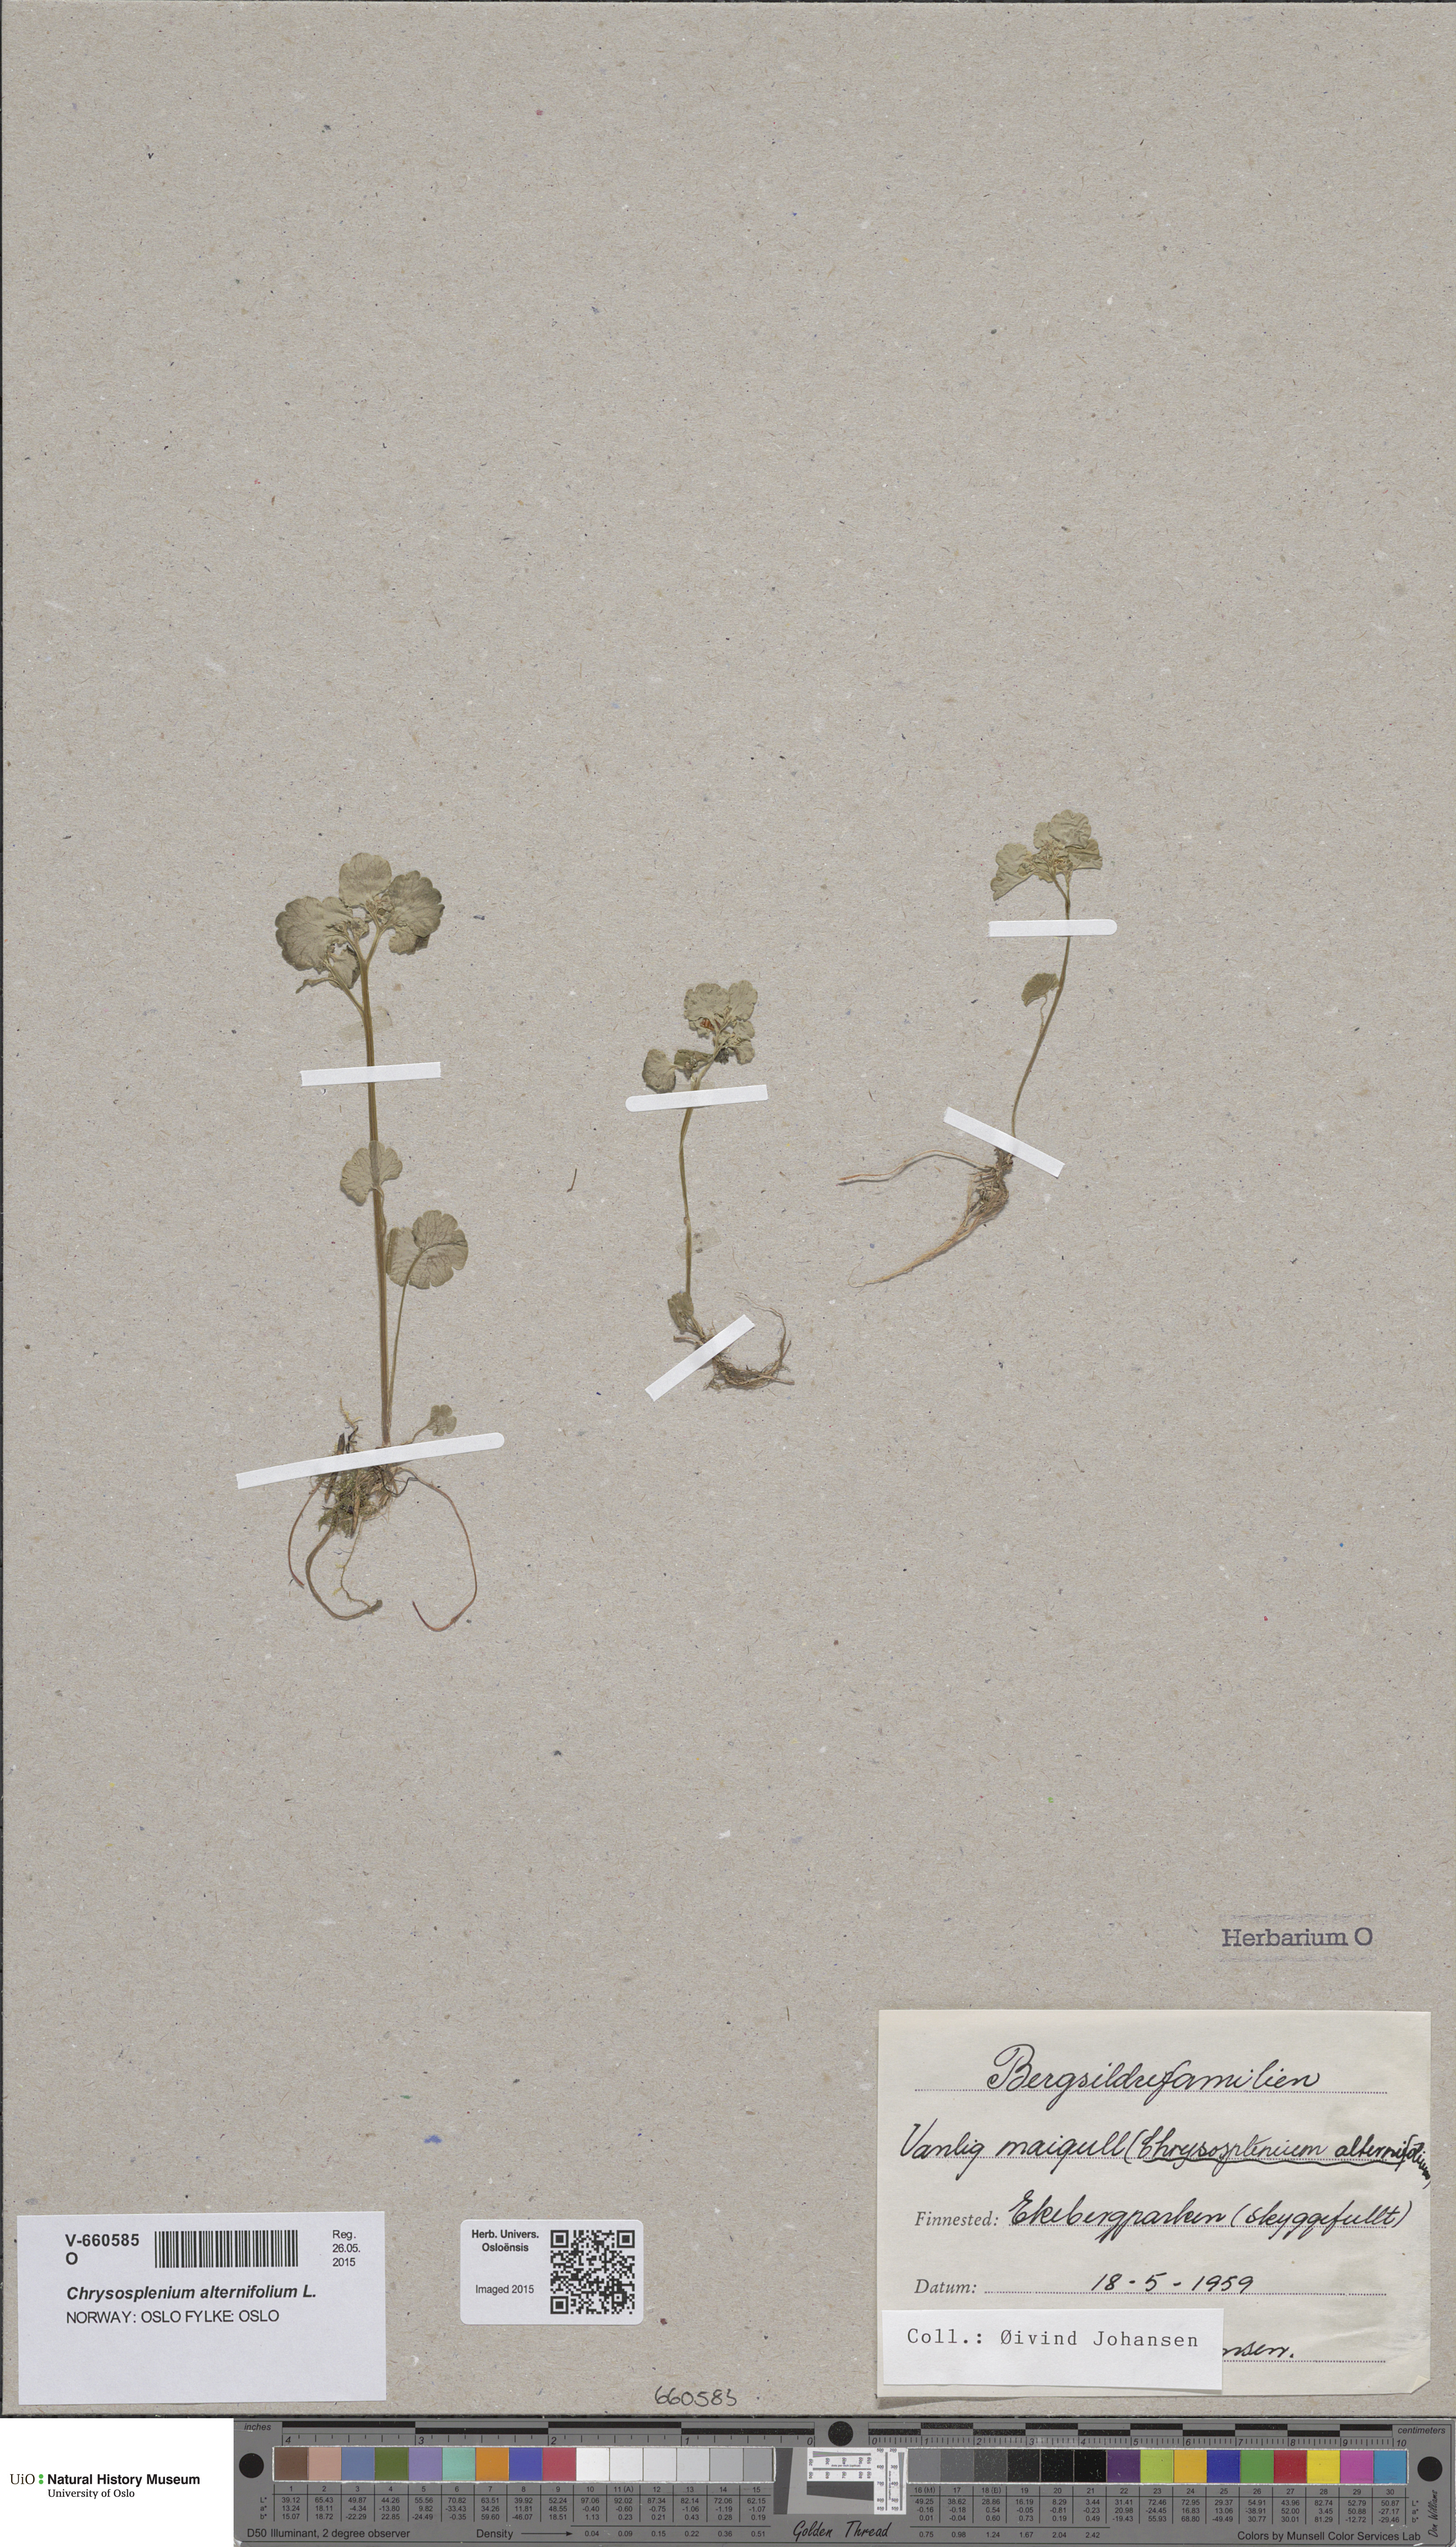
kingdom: Plantae
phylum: Tracheophyta
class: Magnoliopsida
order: Saxifragales
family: Saxifragaceae
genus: Chrysosplenium
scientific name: Chrysosplenium alternifolium
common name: Alternate-leaved golden-saxifrage
